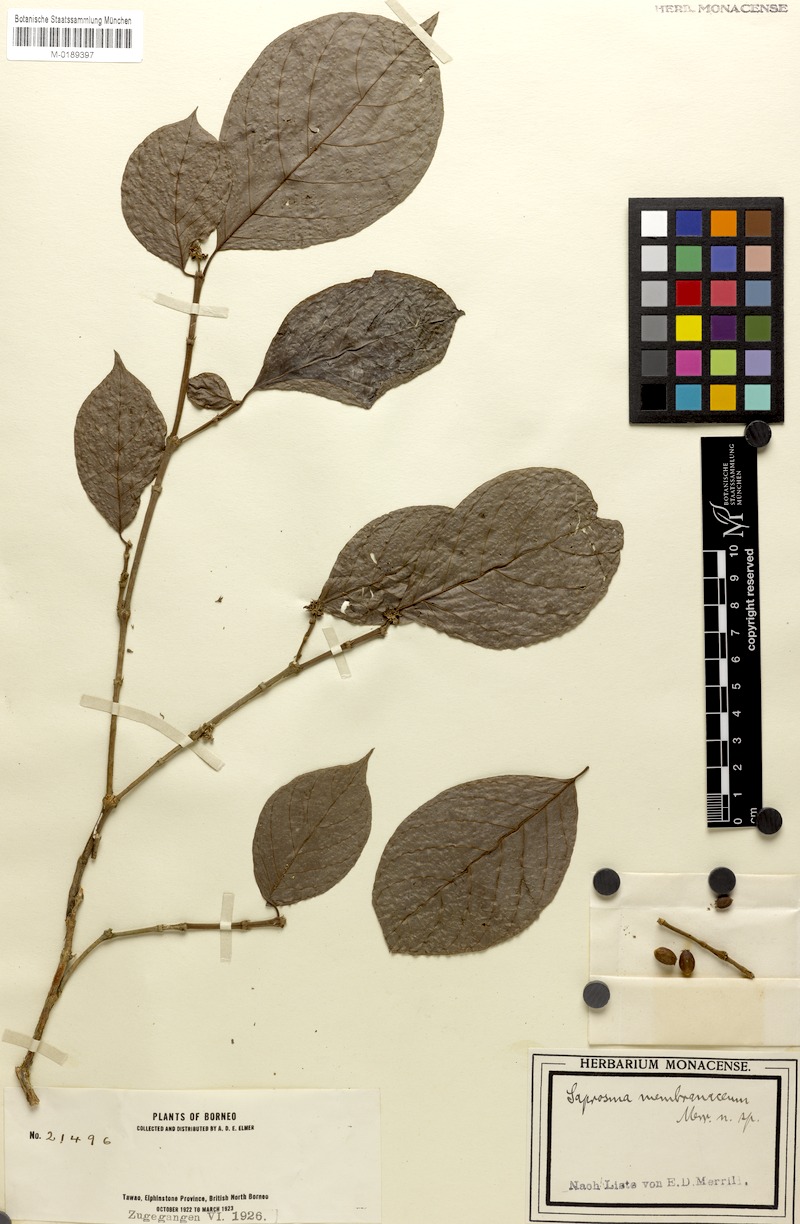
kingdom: Plantae
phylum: Tracheophyta
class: Magnoliopsida
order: Gentianales
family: Rubiaceae
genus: Saprosma
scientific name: Saprosma membranacea
